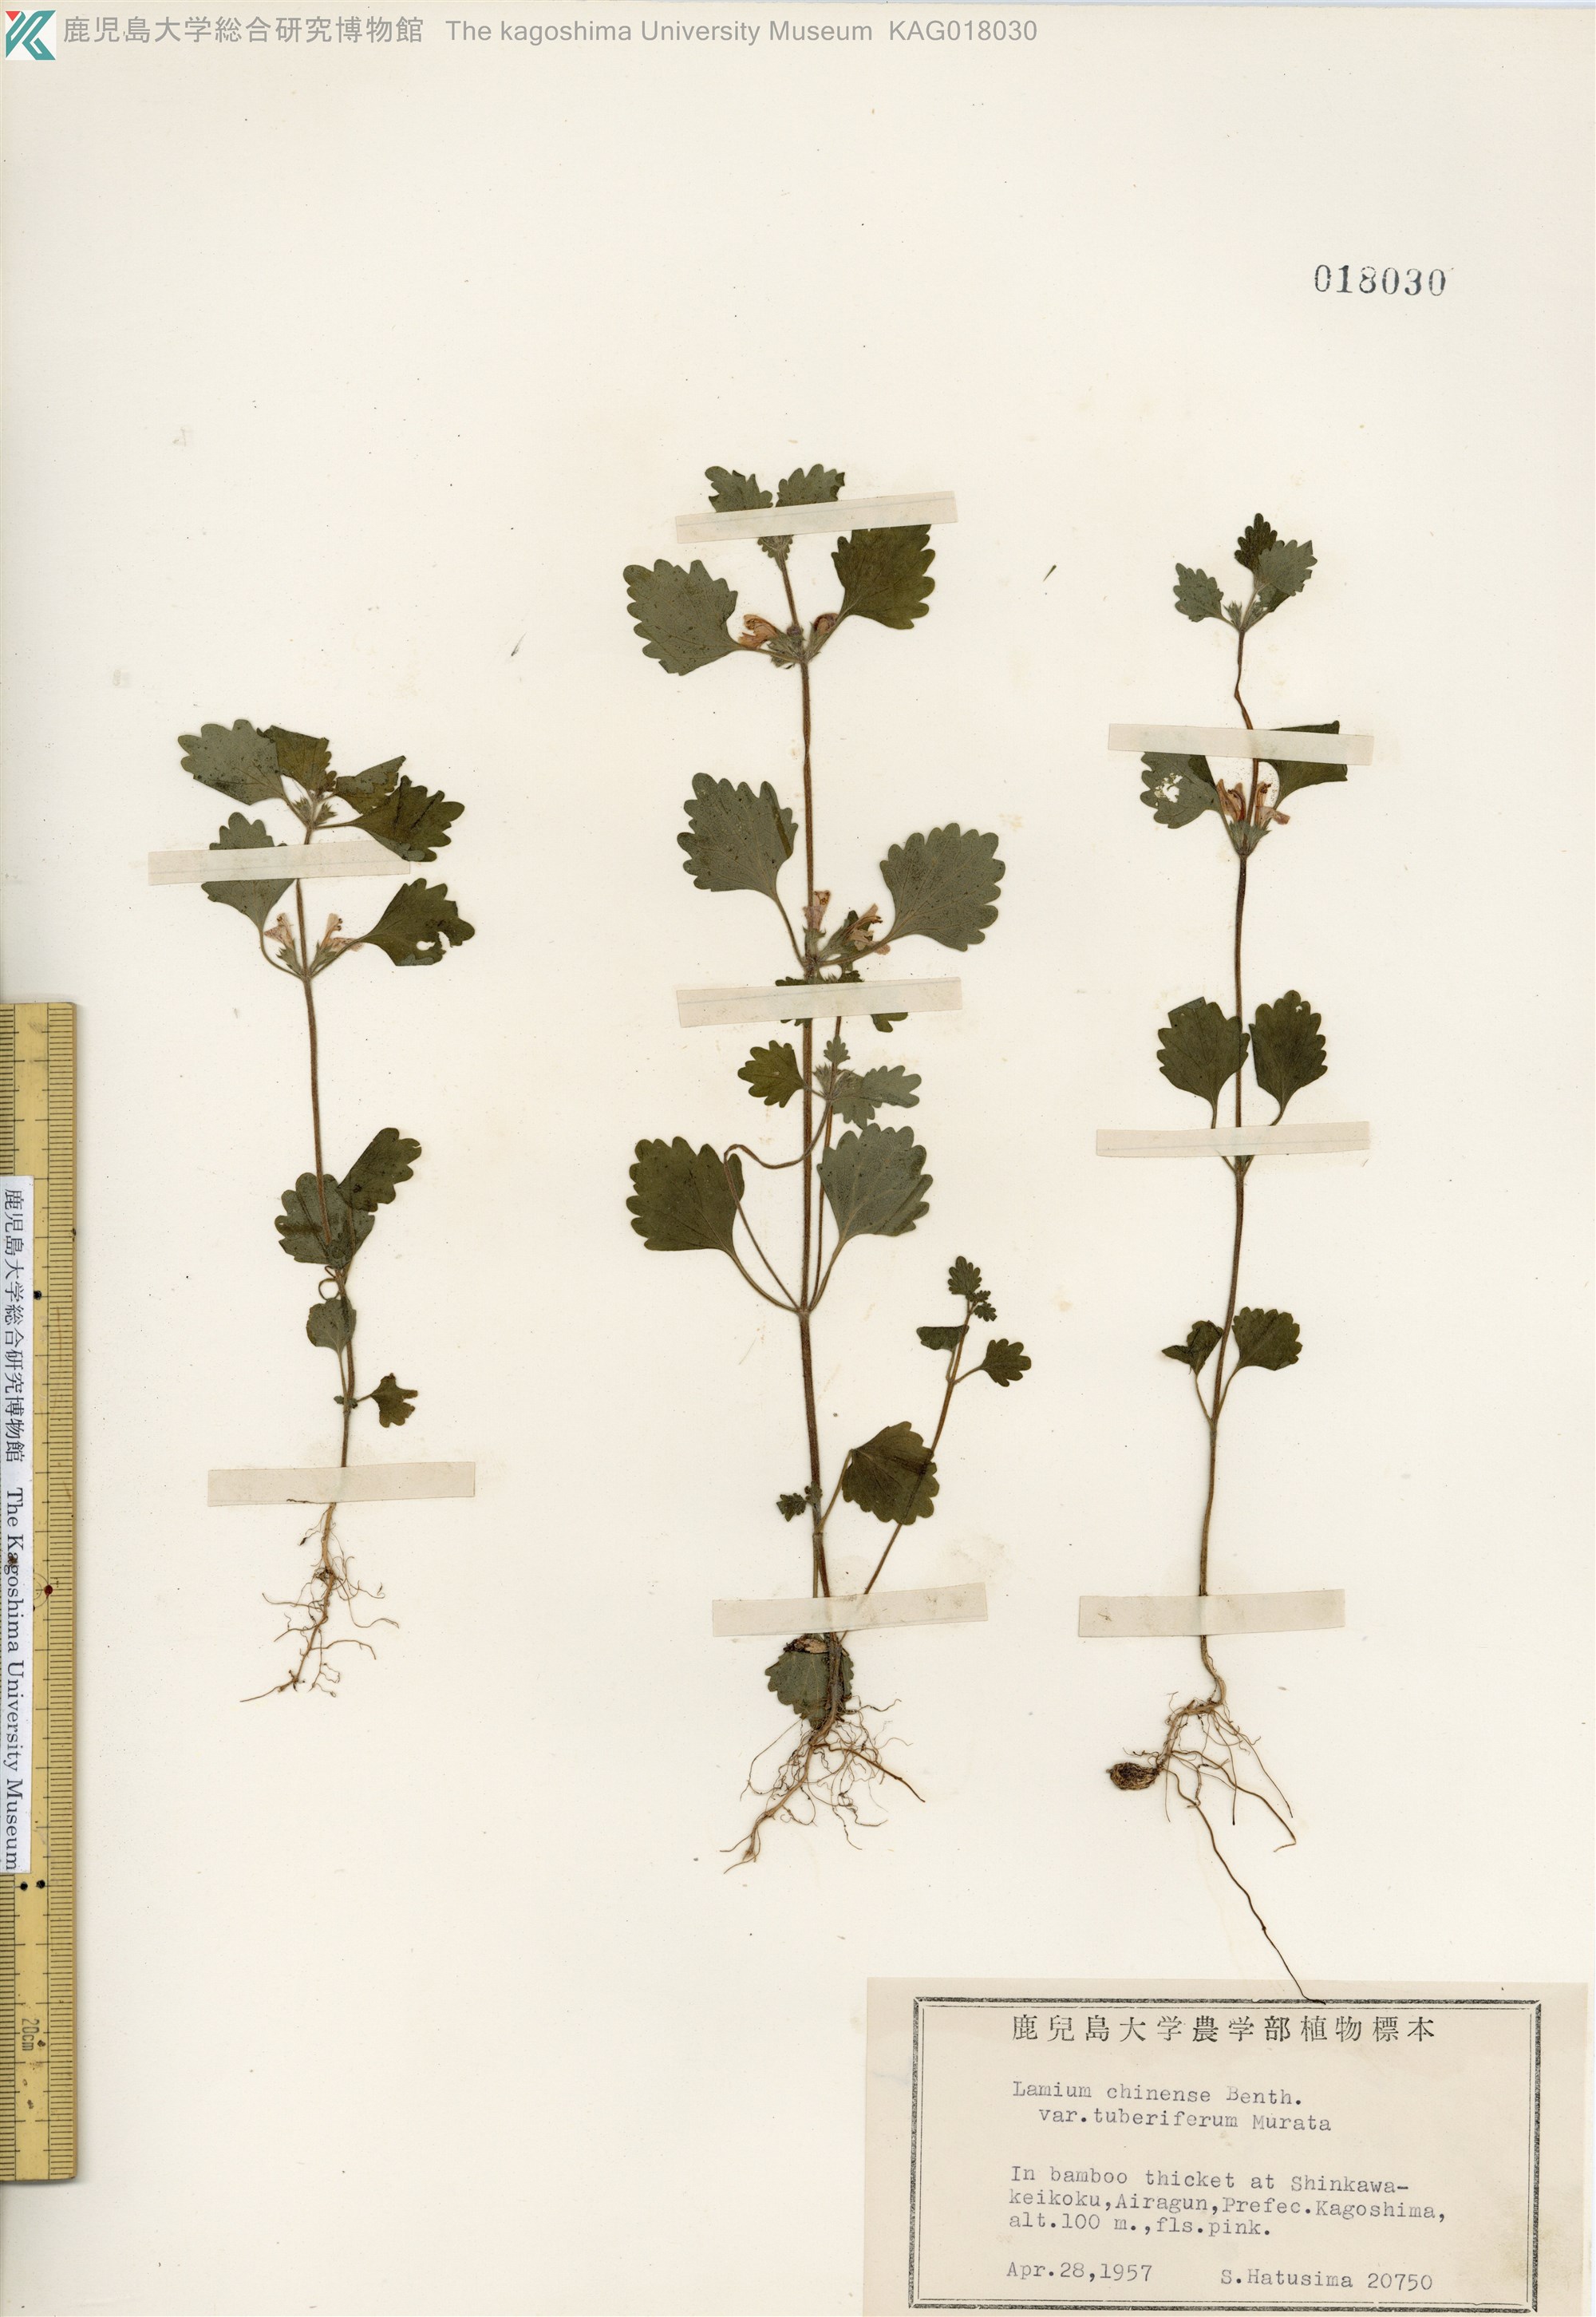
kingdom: Plantae
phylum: Tracheophyta
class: Magnoliopsida
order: Lamiales
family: Lamiaceae
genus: Matsumurella
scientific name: Matsumurella tuberifera
